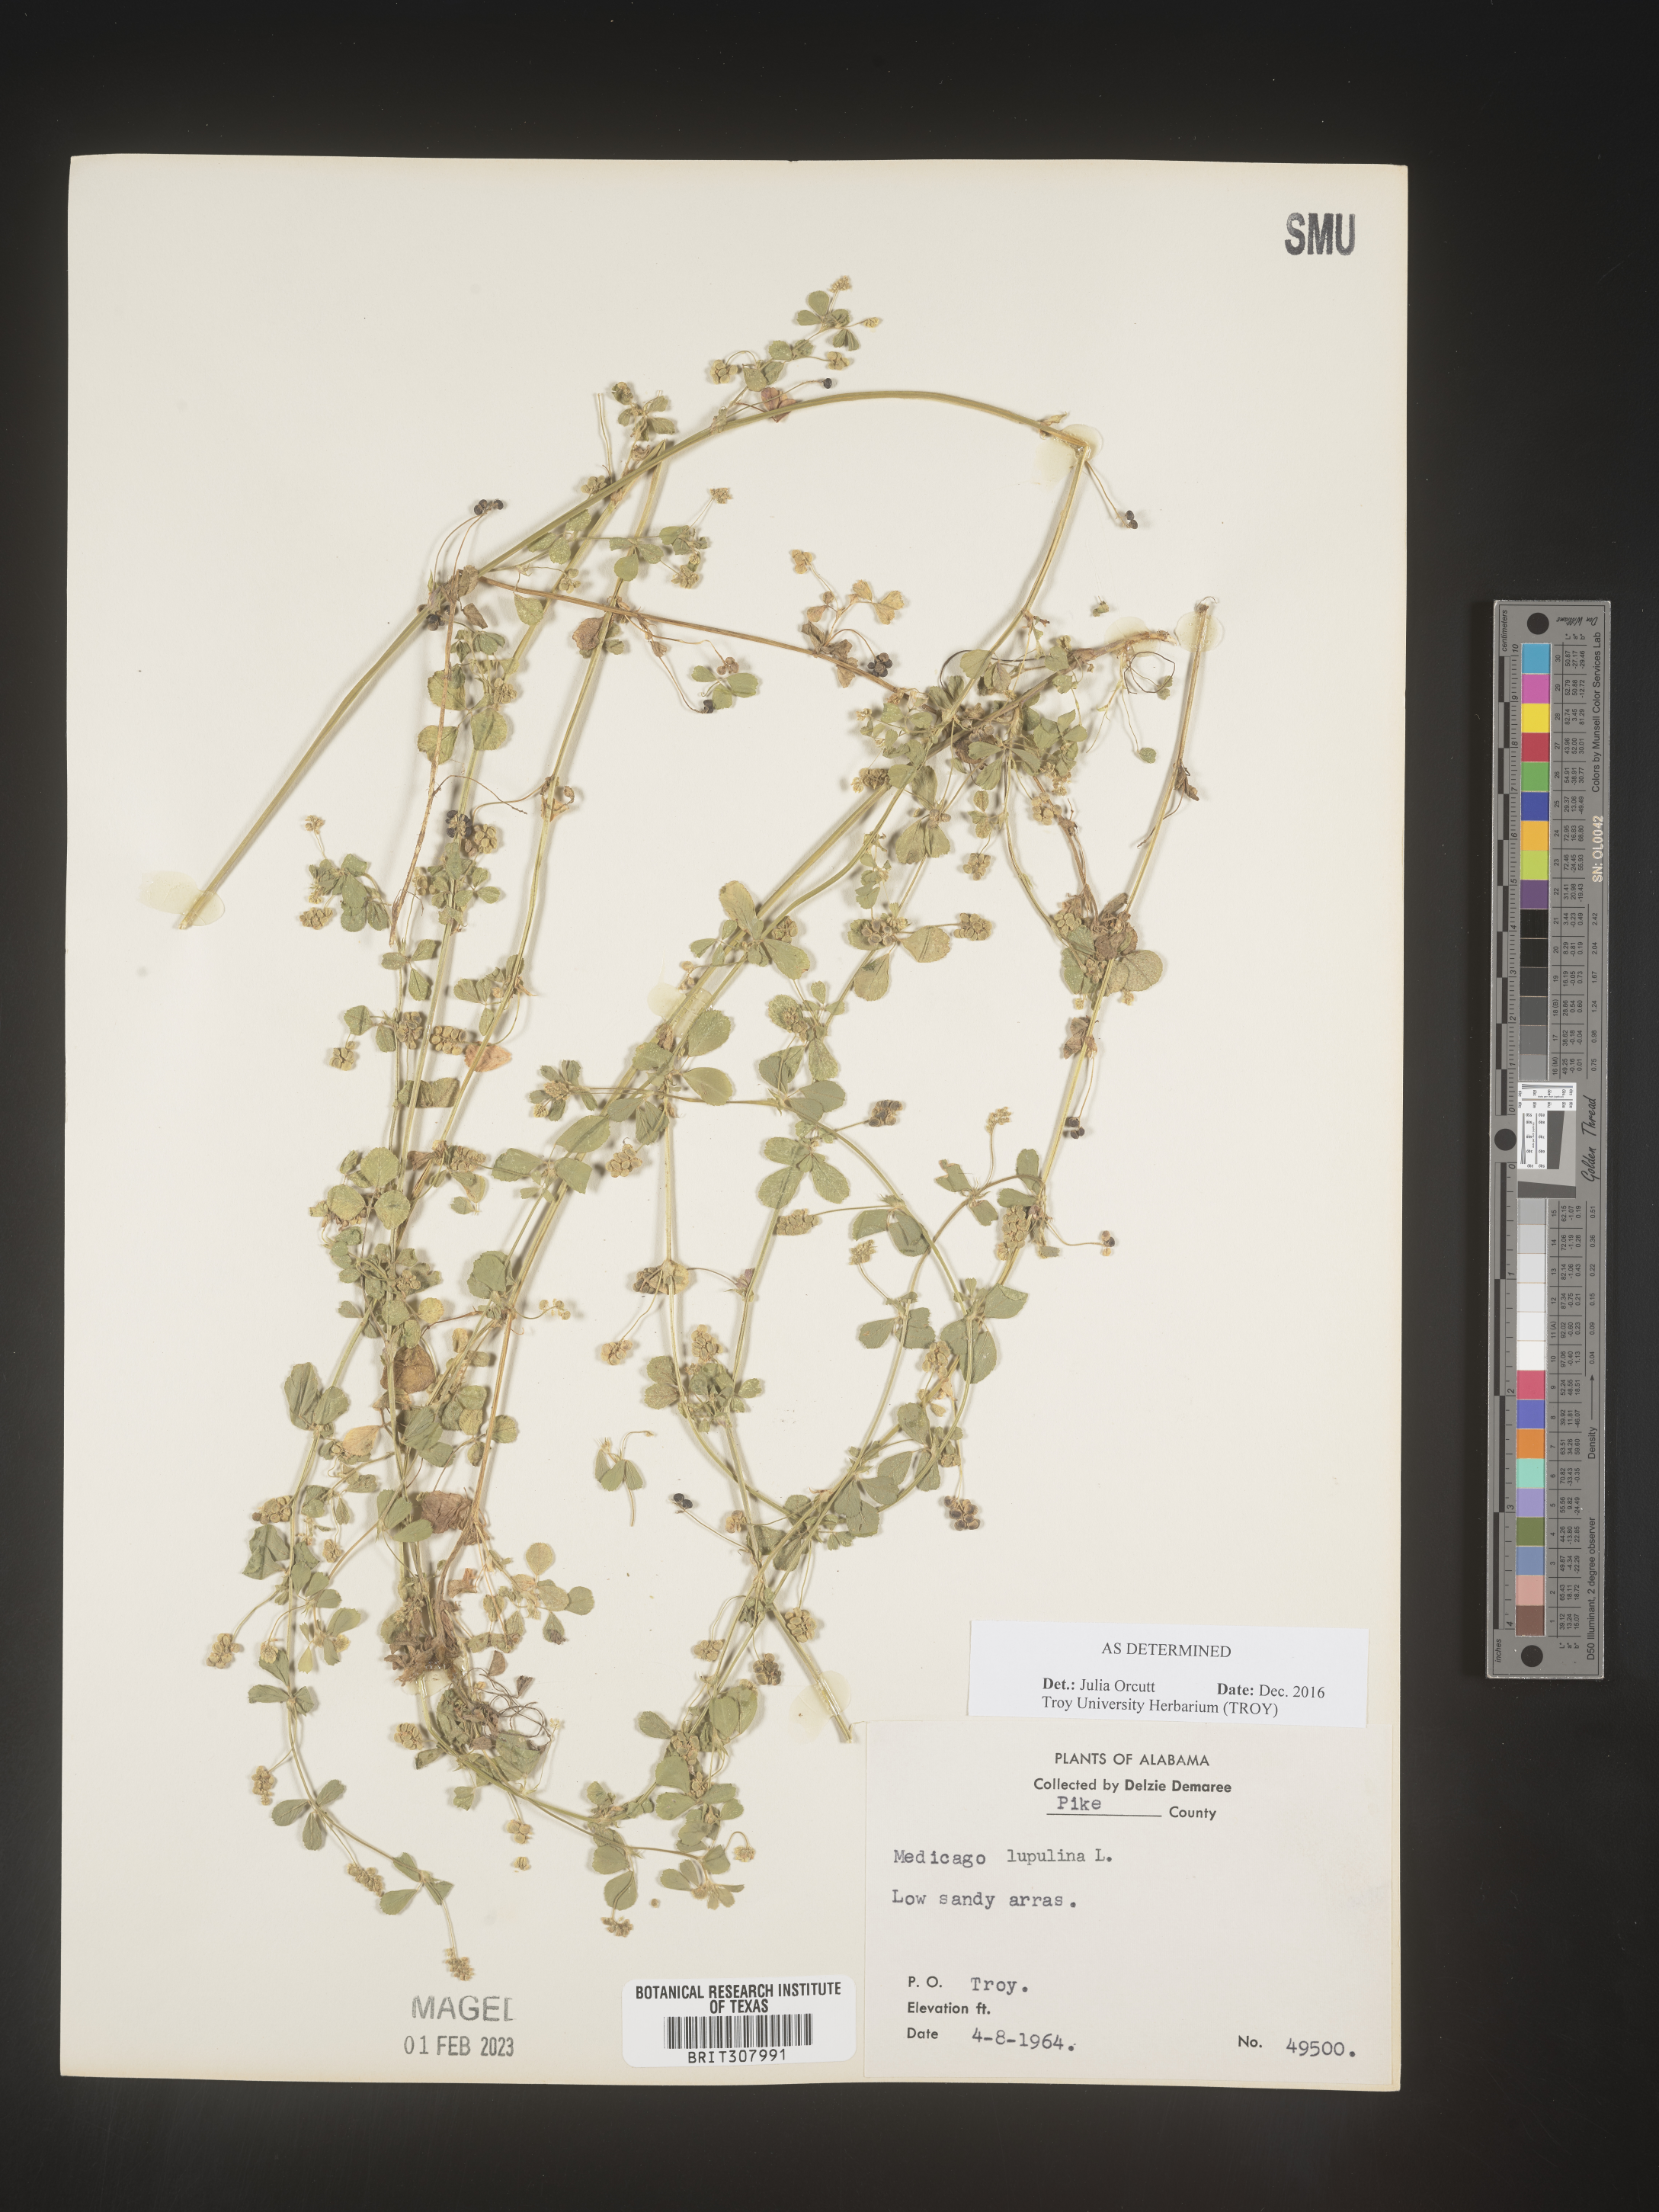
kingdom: Plantae
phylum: Tracheophyta
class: Magnoliopsida
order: Fabales
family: Fabaceae
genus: Medicago
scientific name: Medicago lupulina
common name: Black medick
